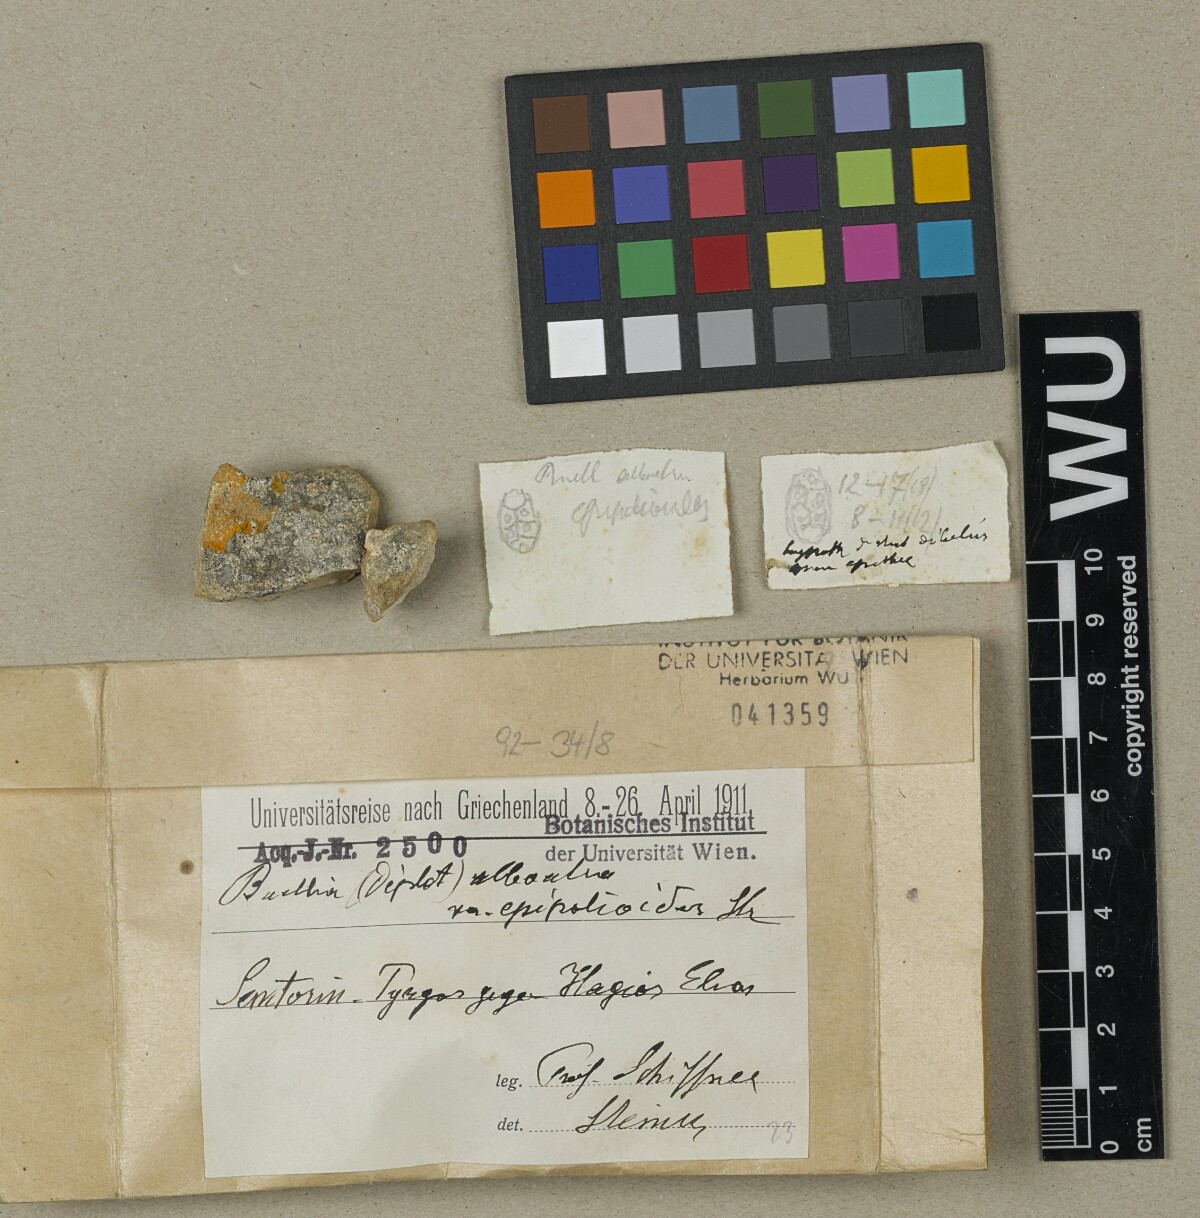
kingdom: Fungi
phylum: Ascomycota
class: Lecanoromycetes
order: Caliciales
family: Caliciaceae
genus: Diplotomma
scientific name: Diplotomma alboatrum
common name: Grayish button lichen
